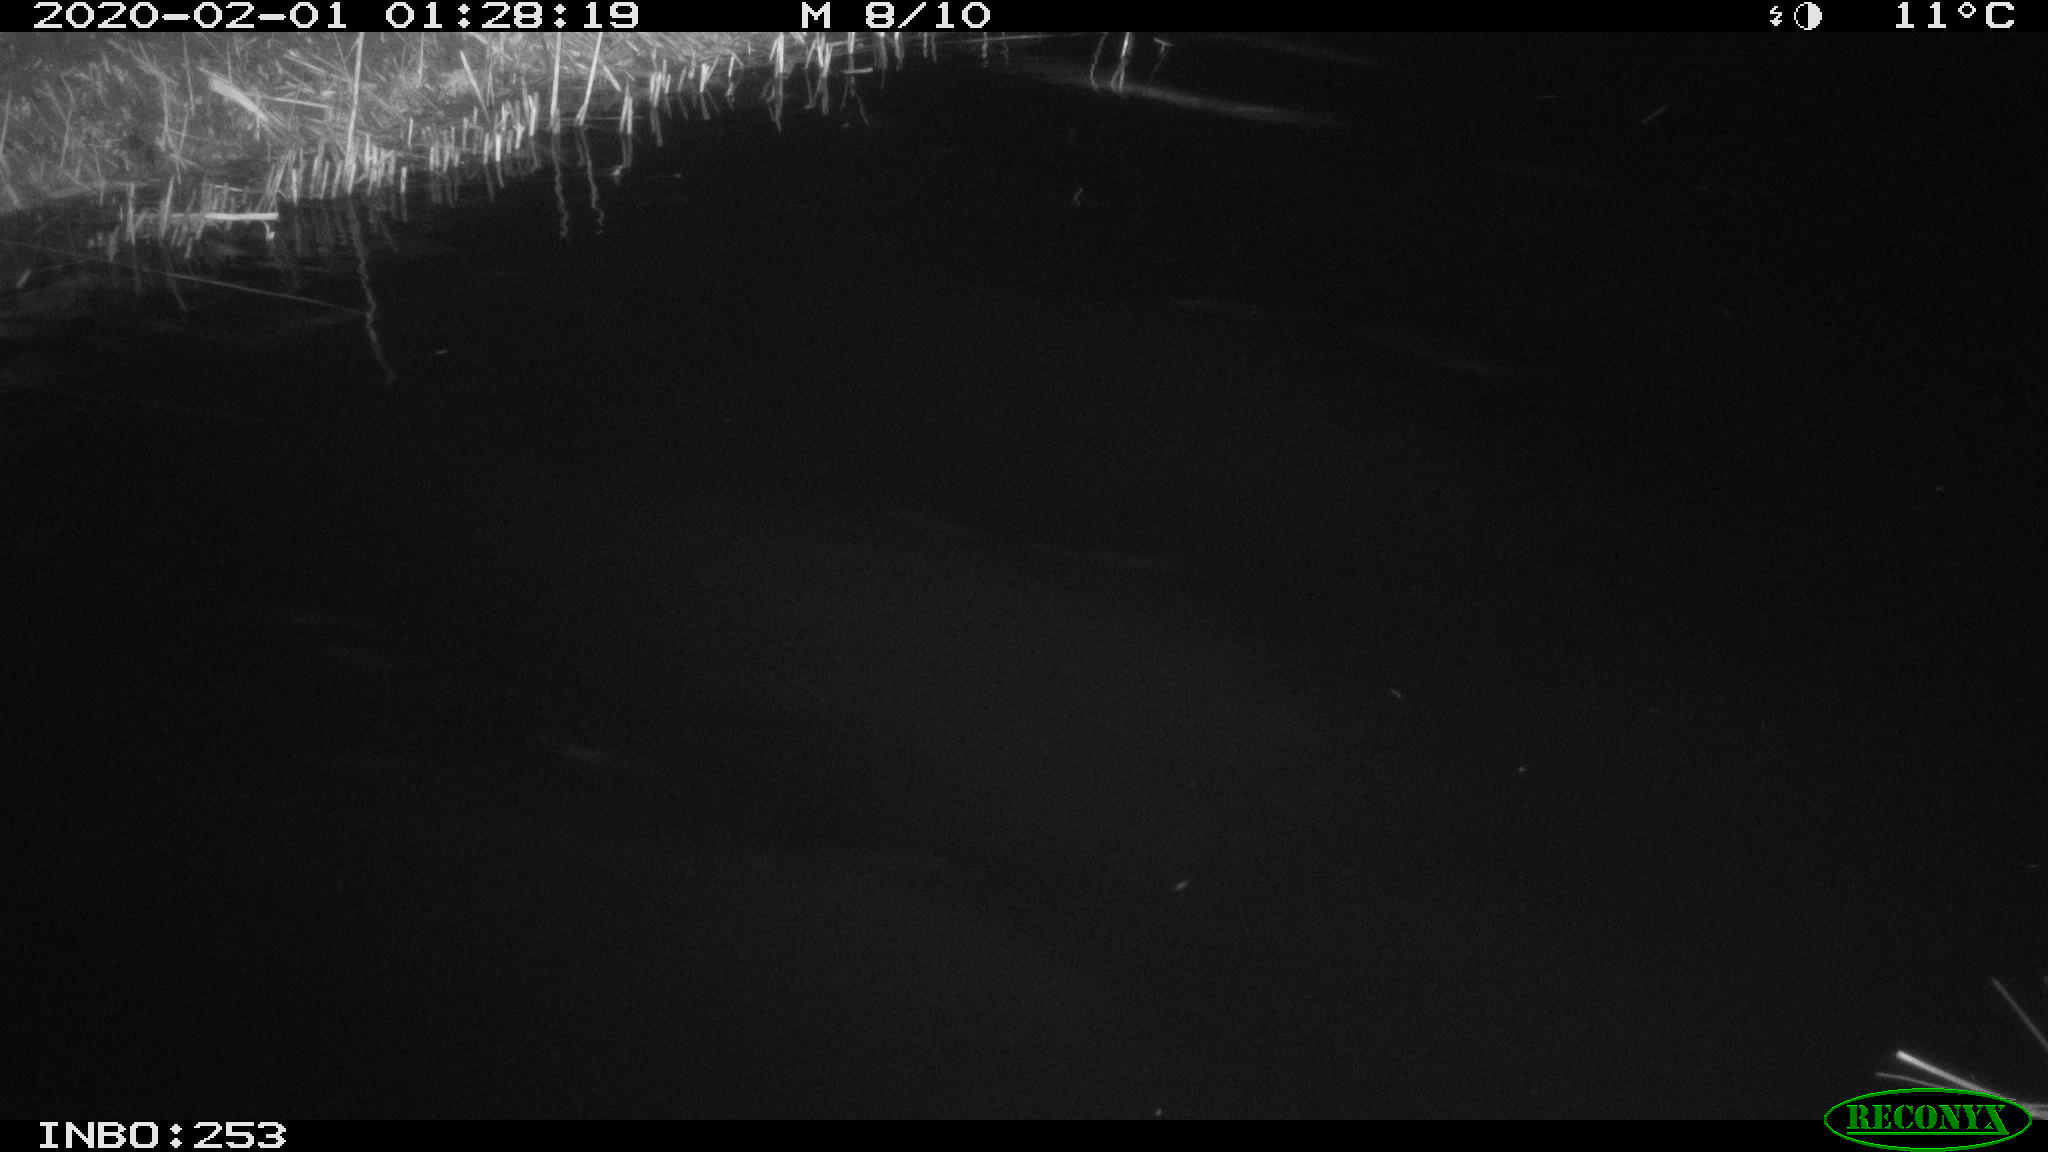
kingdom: Animalia
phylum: Chordata
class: Aves
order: Anseriformes
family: Anatidae
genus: Anas
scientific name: Anas platyrhynchos
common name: Mallard
